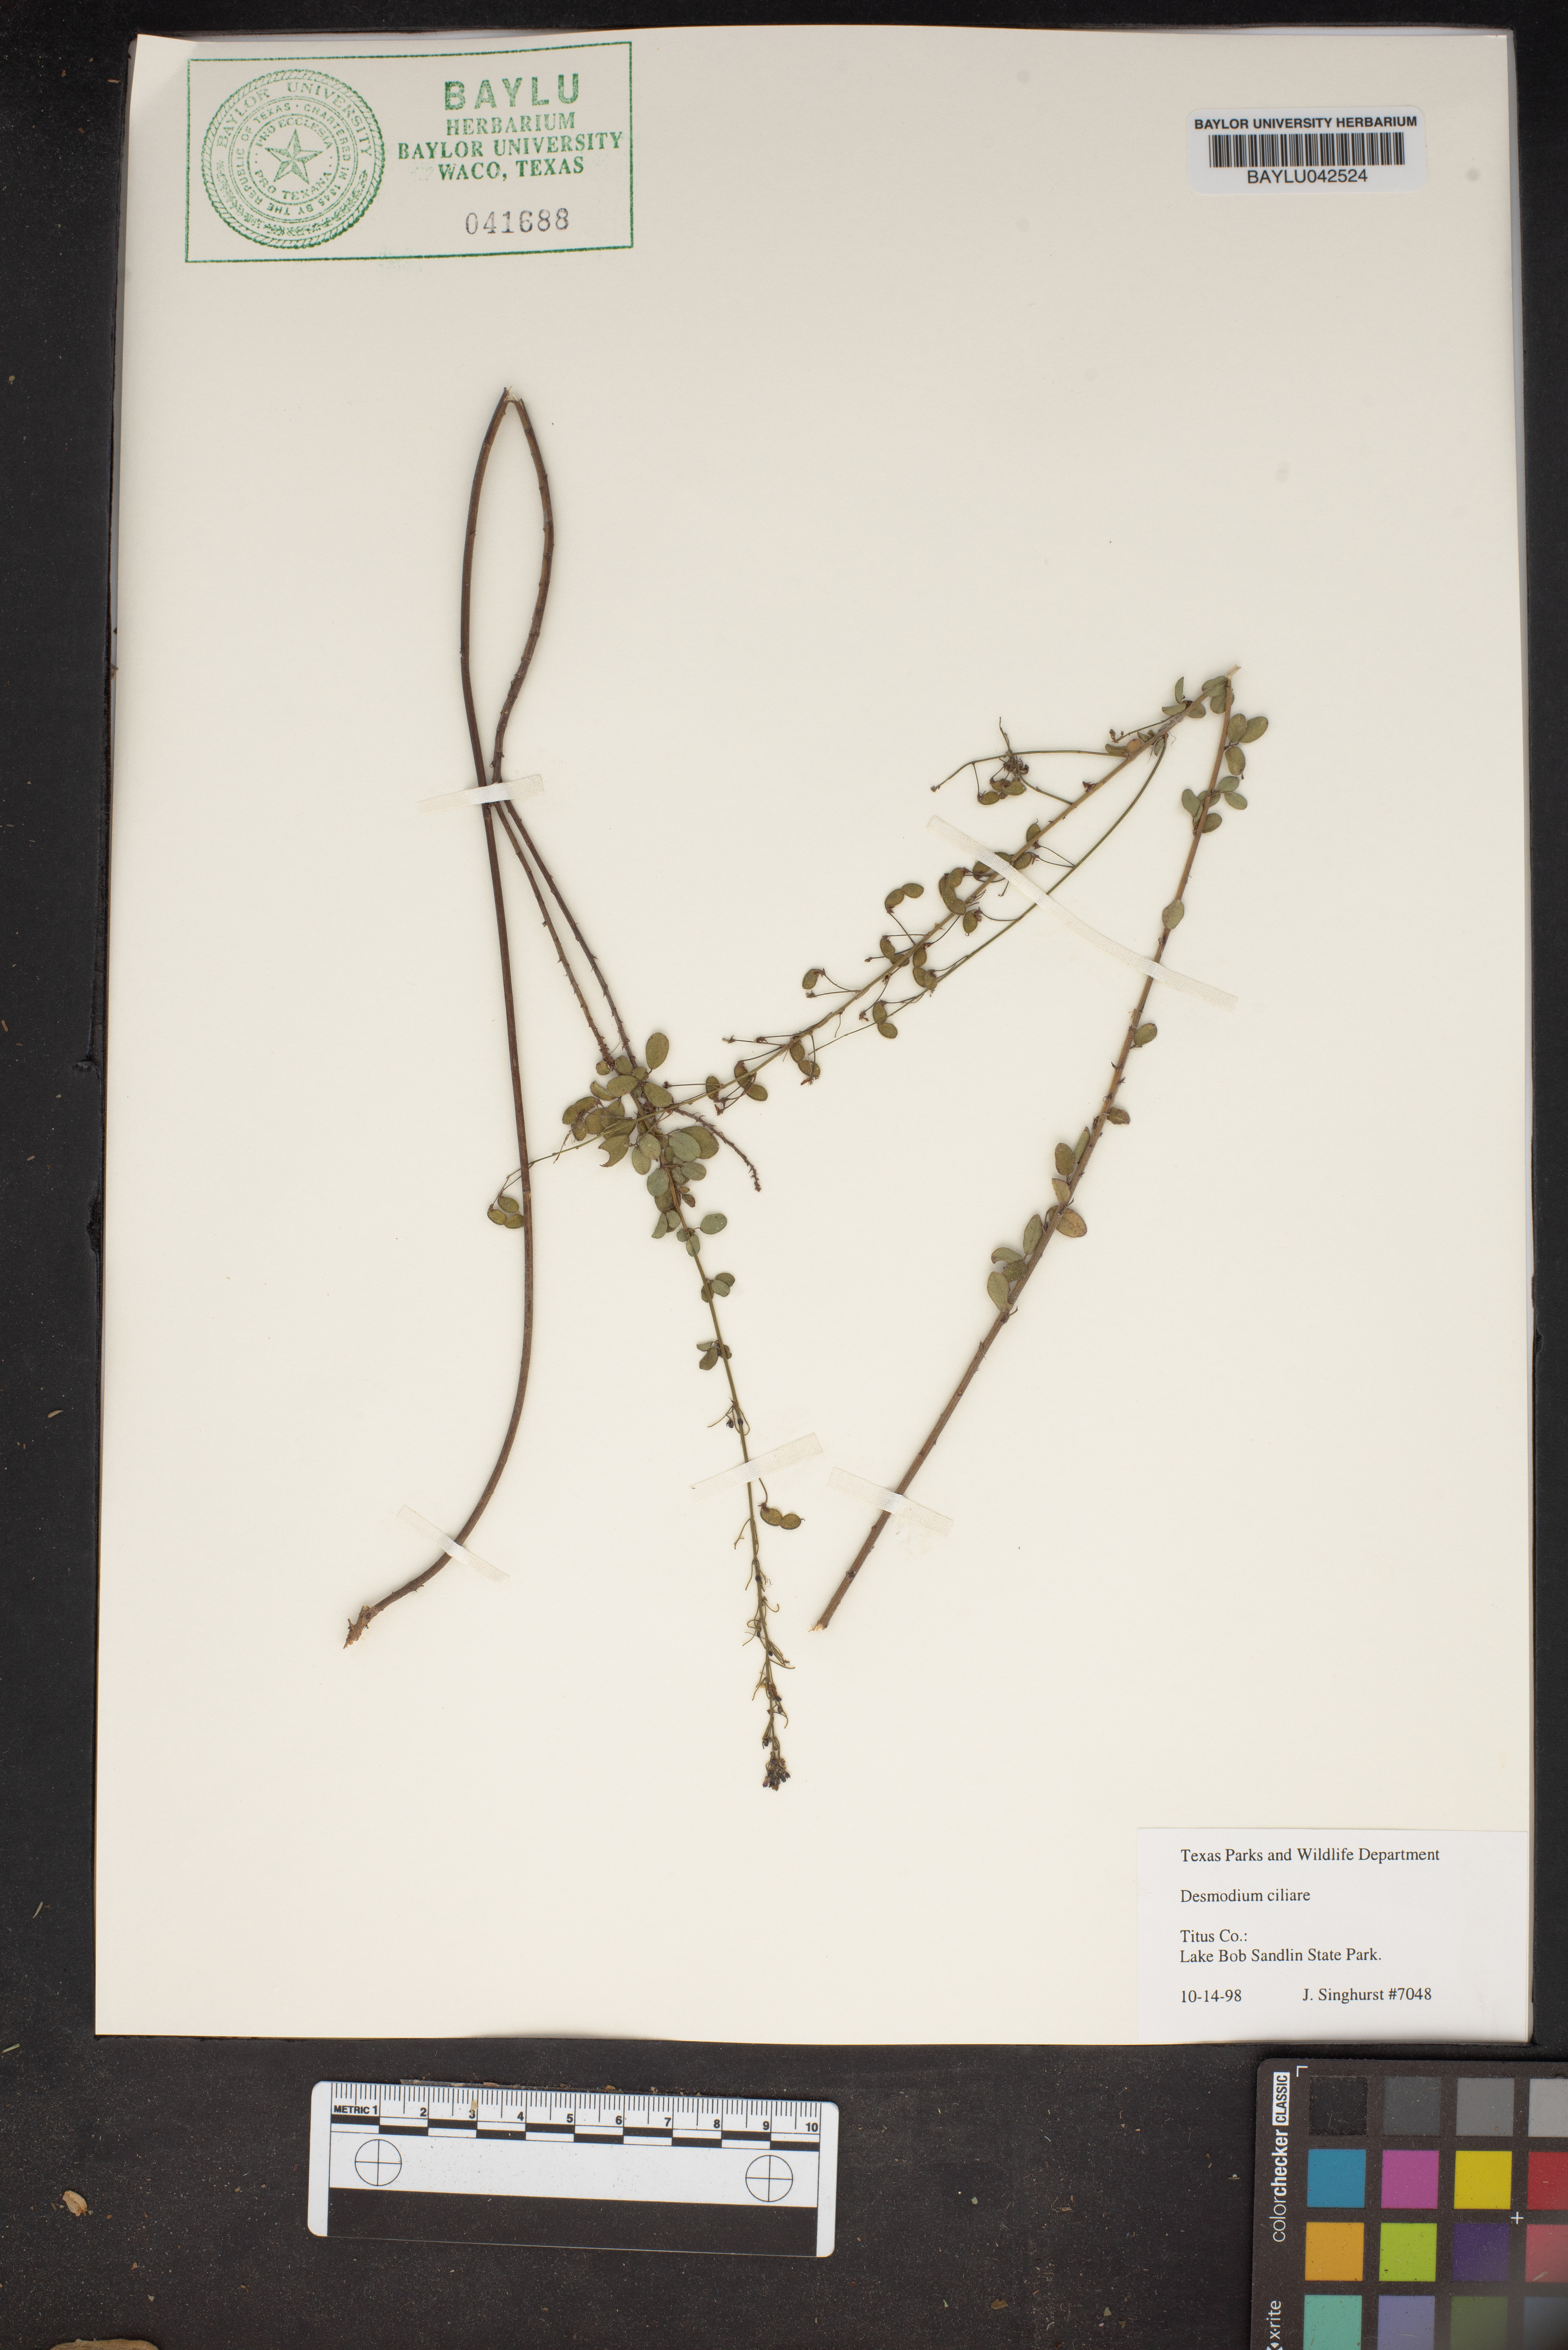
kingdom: Plantae
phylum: Tracheophyta
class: Magnoliopsida
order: Fabales
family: Fabaceae
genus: Desmodium
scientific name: Desmodium ciliare
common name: Hairy small-leaf ticktrefoil
